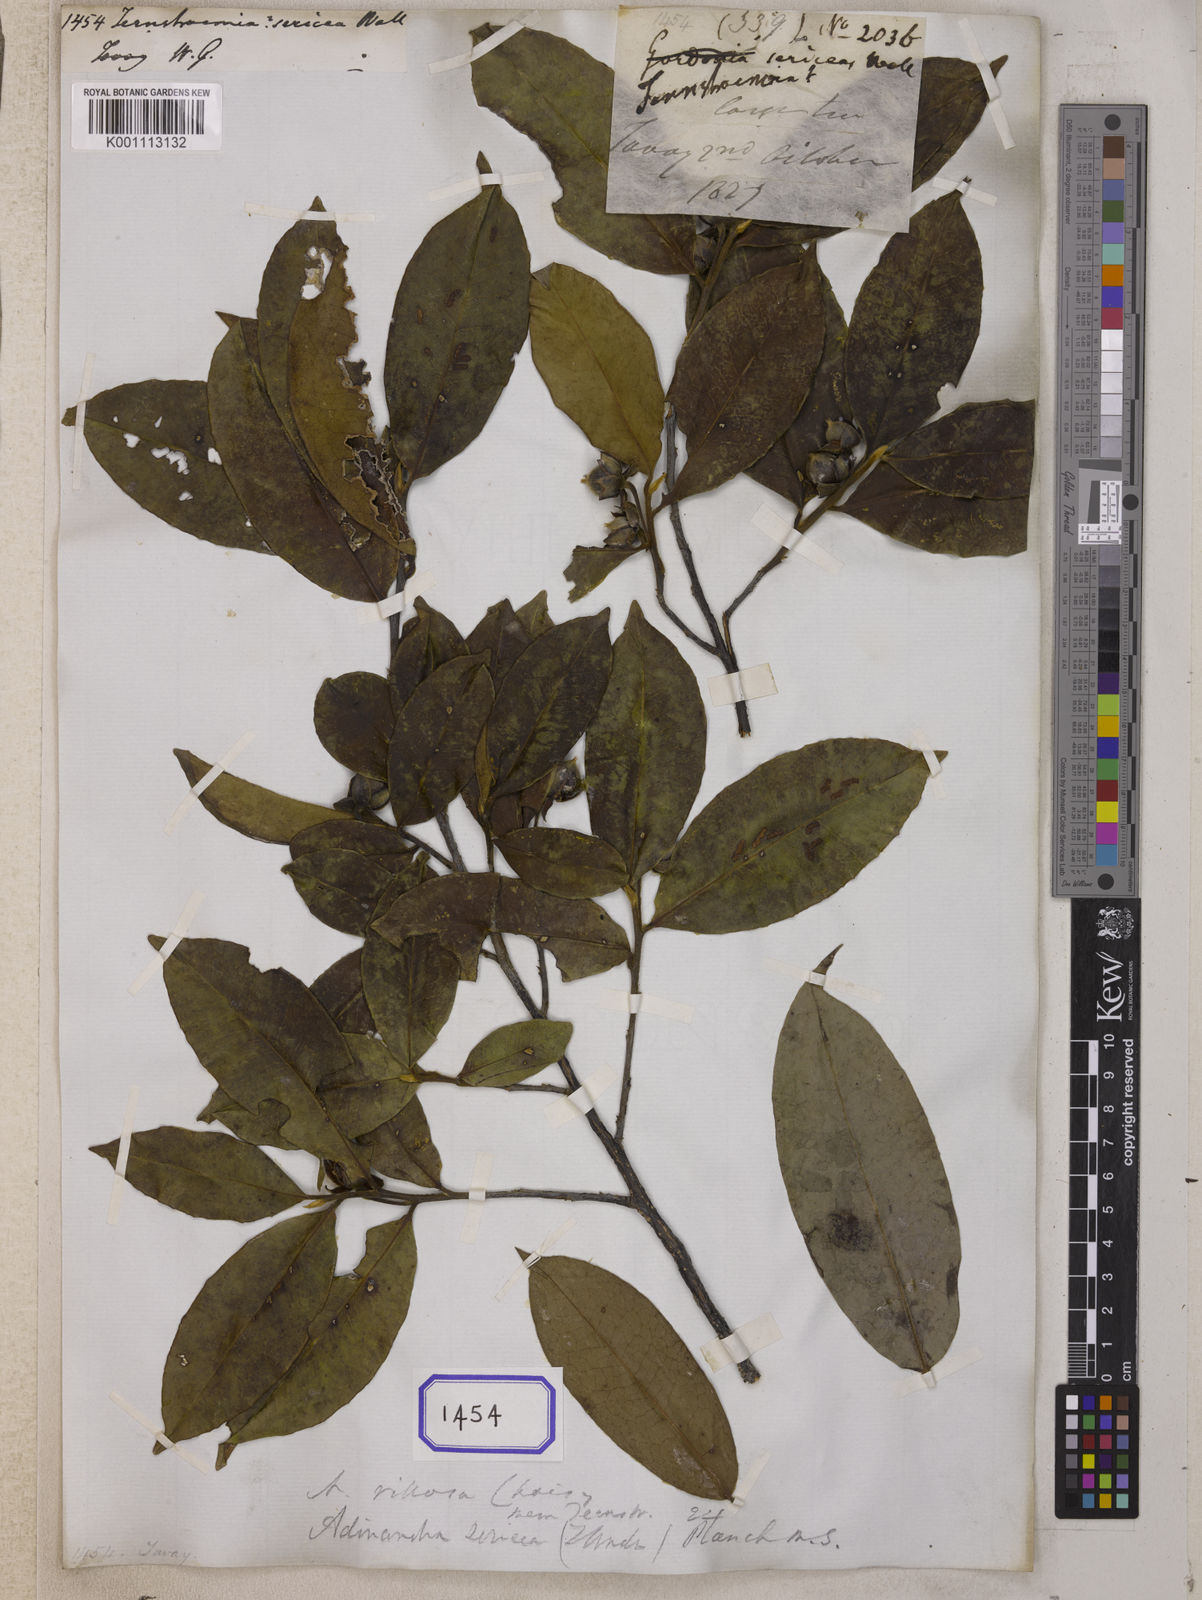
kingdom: Plantae
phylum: Tracheophyta
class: Magnoliopsida
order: Ericales
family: Pentaphylacaceae
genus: Adinandra
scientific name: Adinandra villosa
